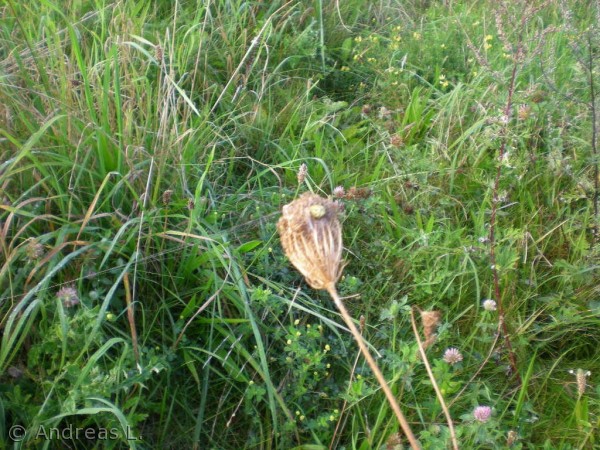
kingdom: Animalia
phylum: Arthropoda
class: Arachnida
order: Araneae
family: Araneidae
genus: Araneus
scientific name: Araneus quadratus
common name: Kvadratedderkop
